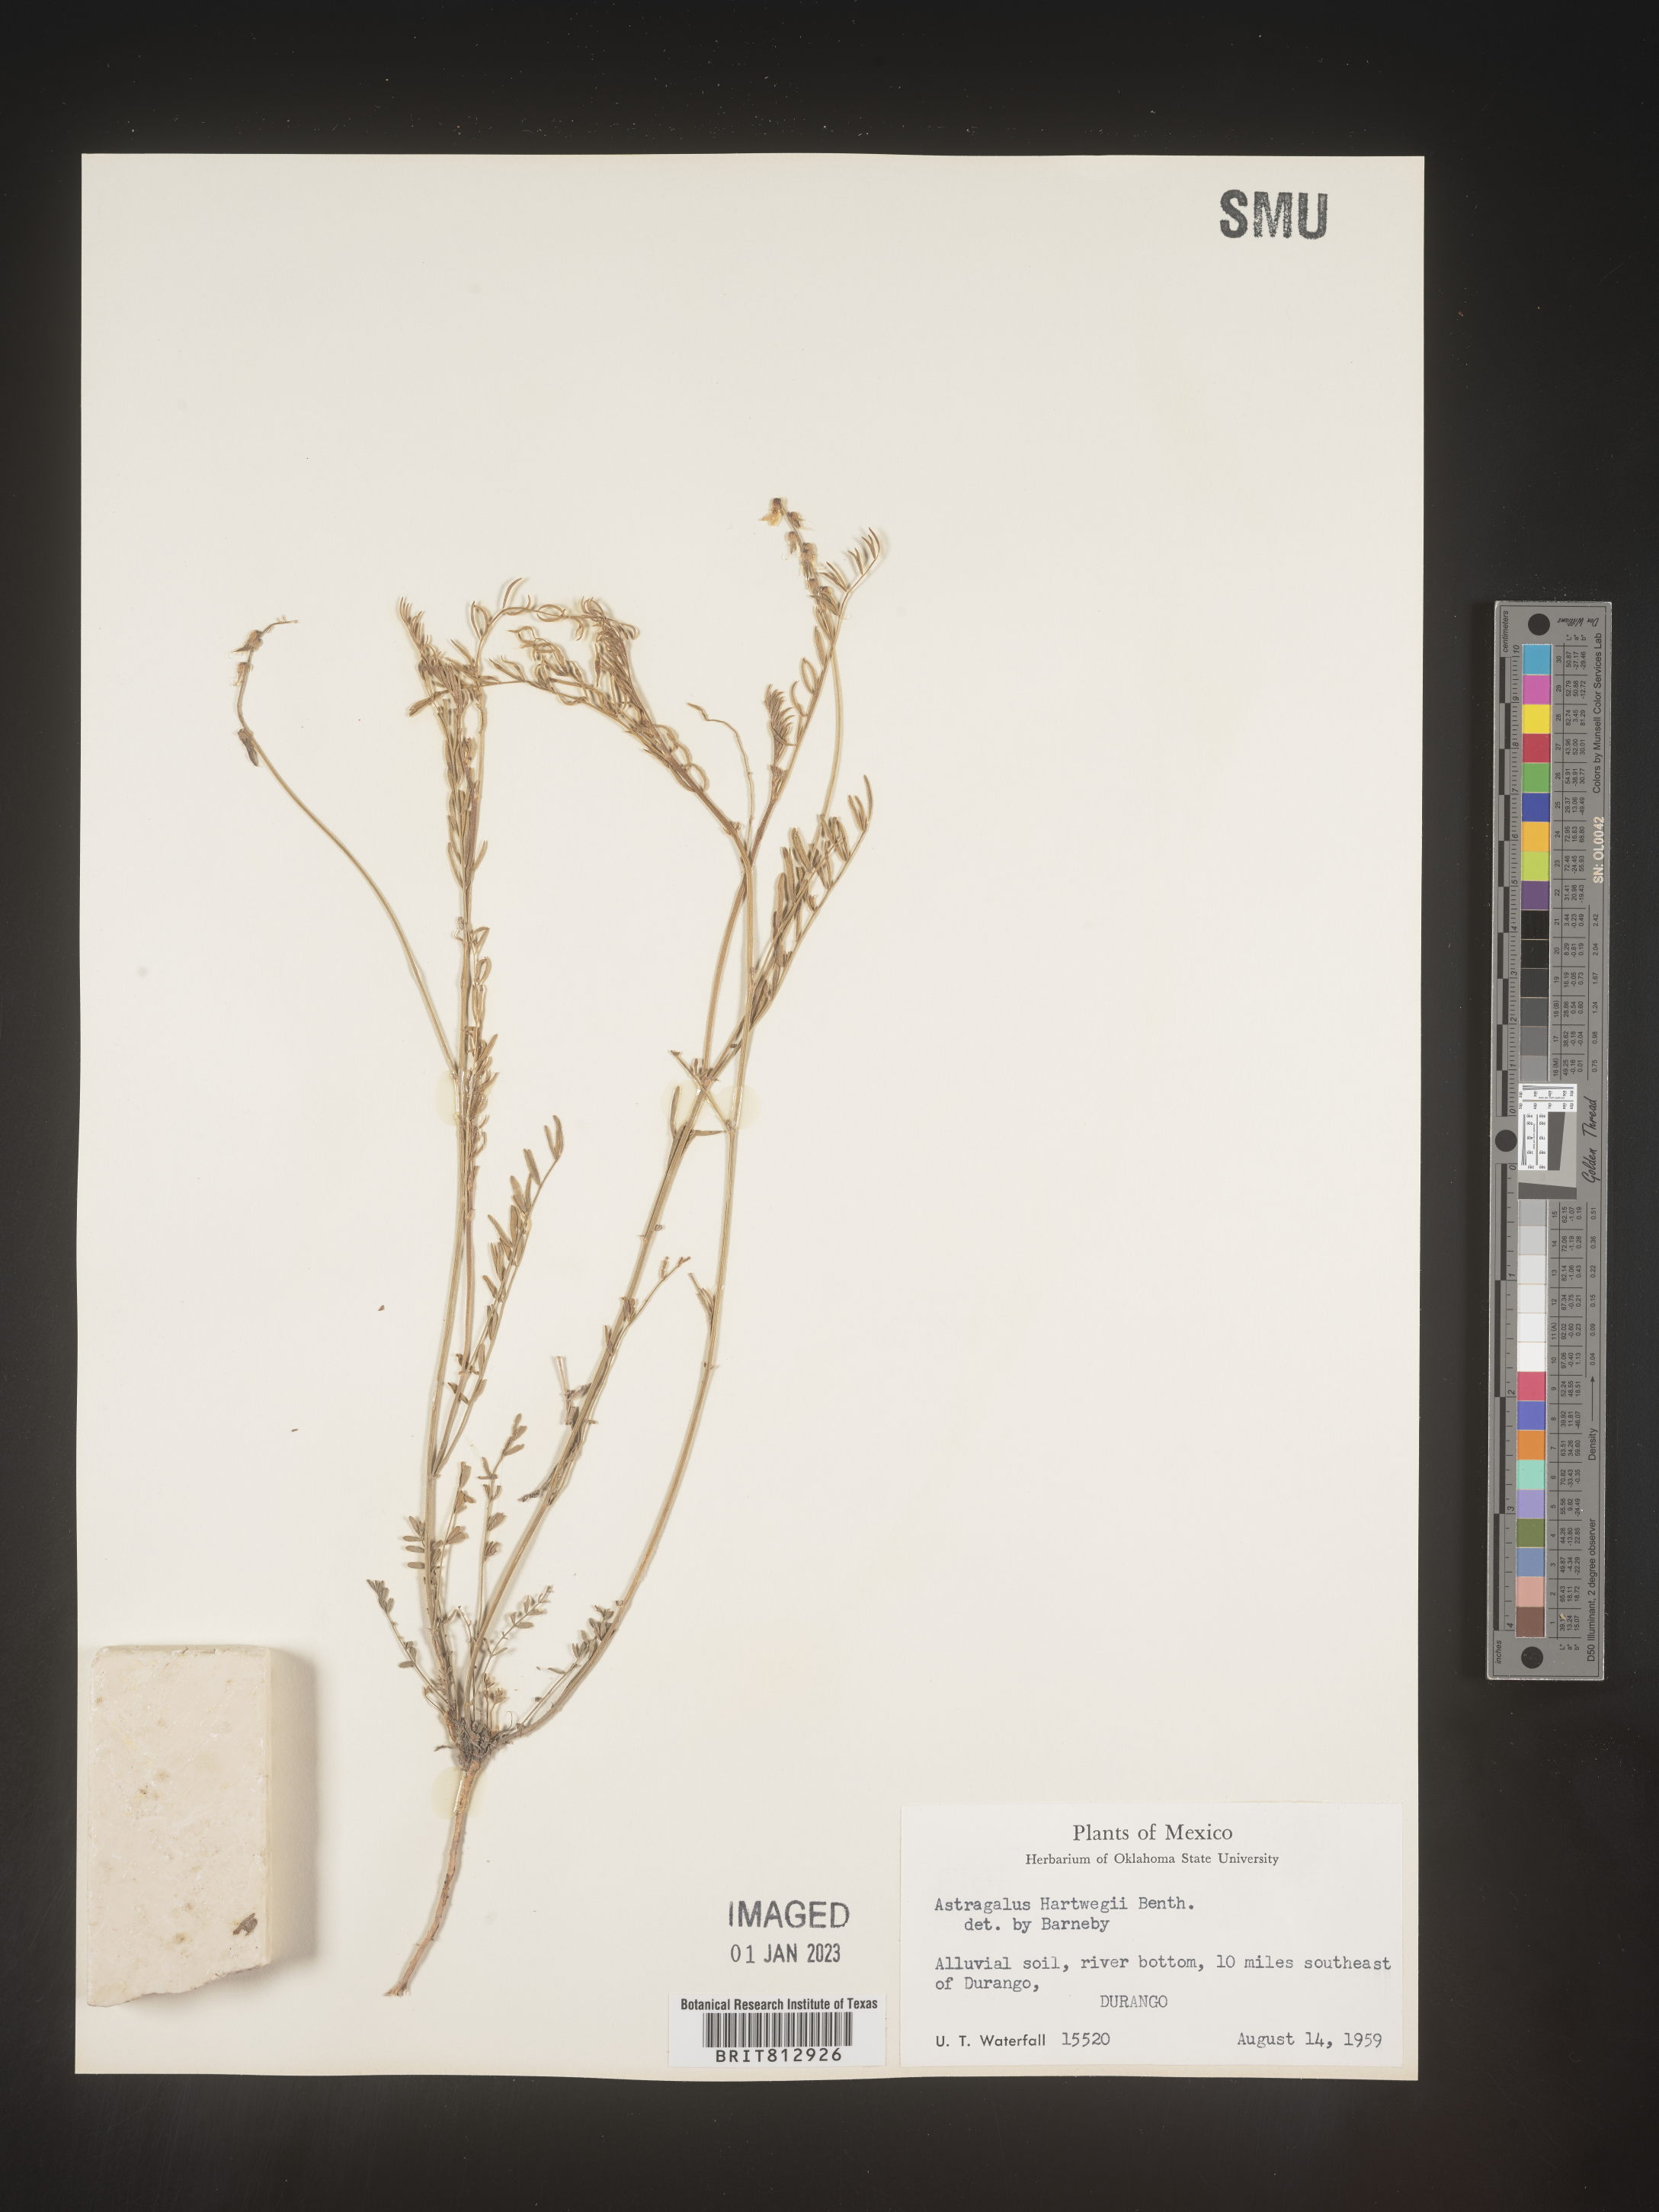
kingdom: Plantae
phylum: Tracheophyta
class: Magnoliopsida
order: Fabales
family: Fabaceae
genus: Astragalus
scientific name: Astragalus
